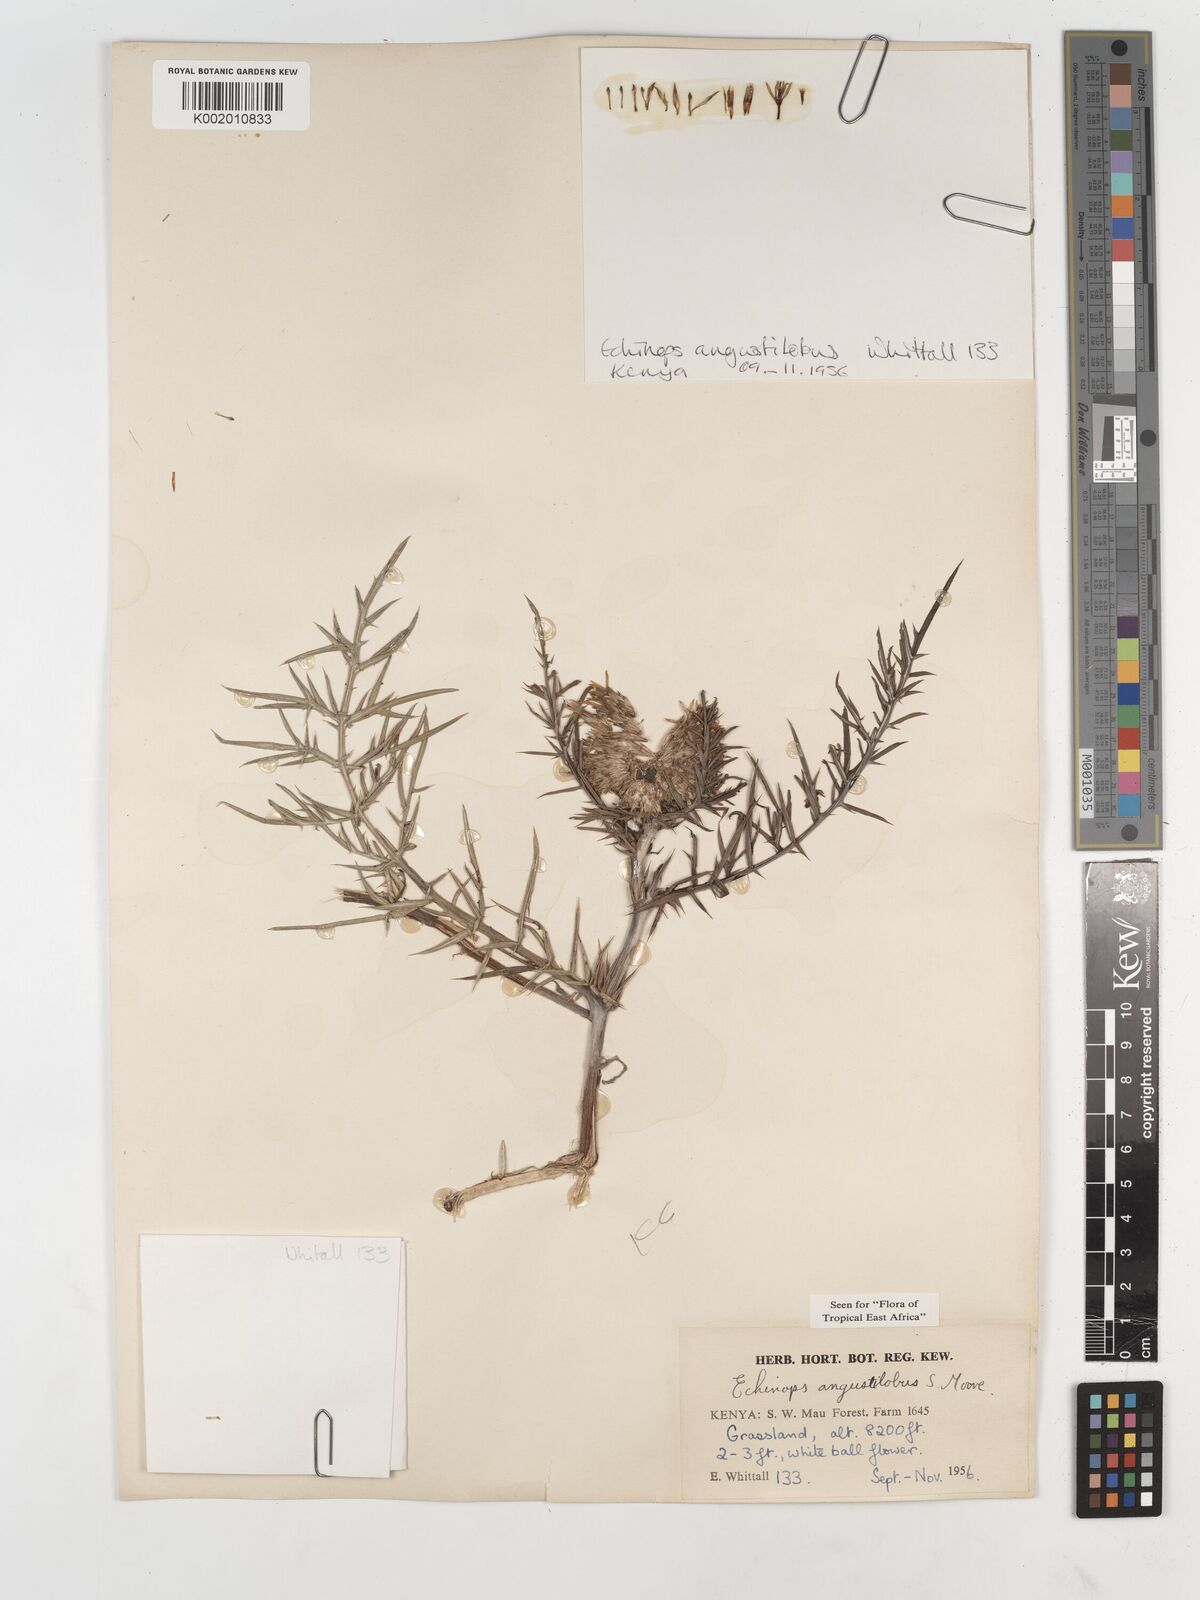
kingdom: Plantae
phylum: Tracheophyta
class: Magnoliopsida
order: Asterales
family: Asteraceae
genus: Echinops
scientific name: Echinops angustilobus
